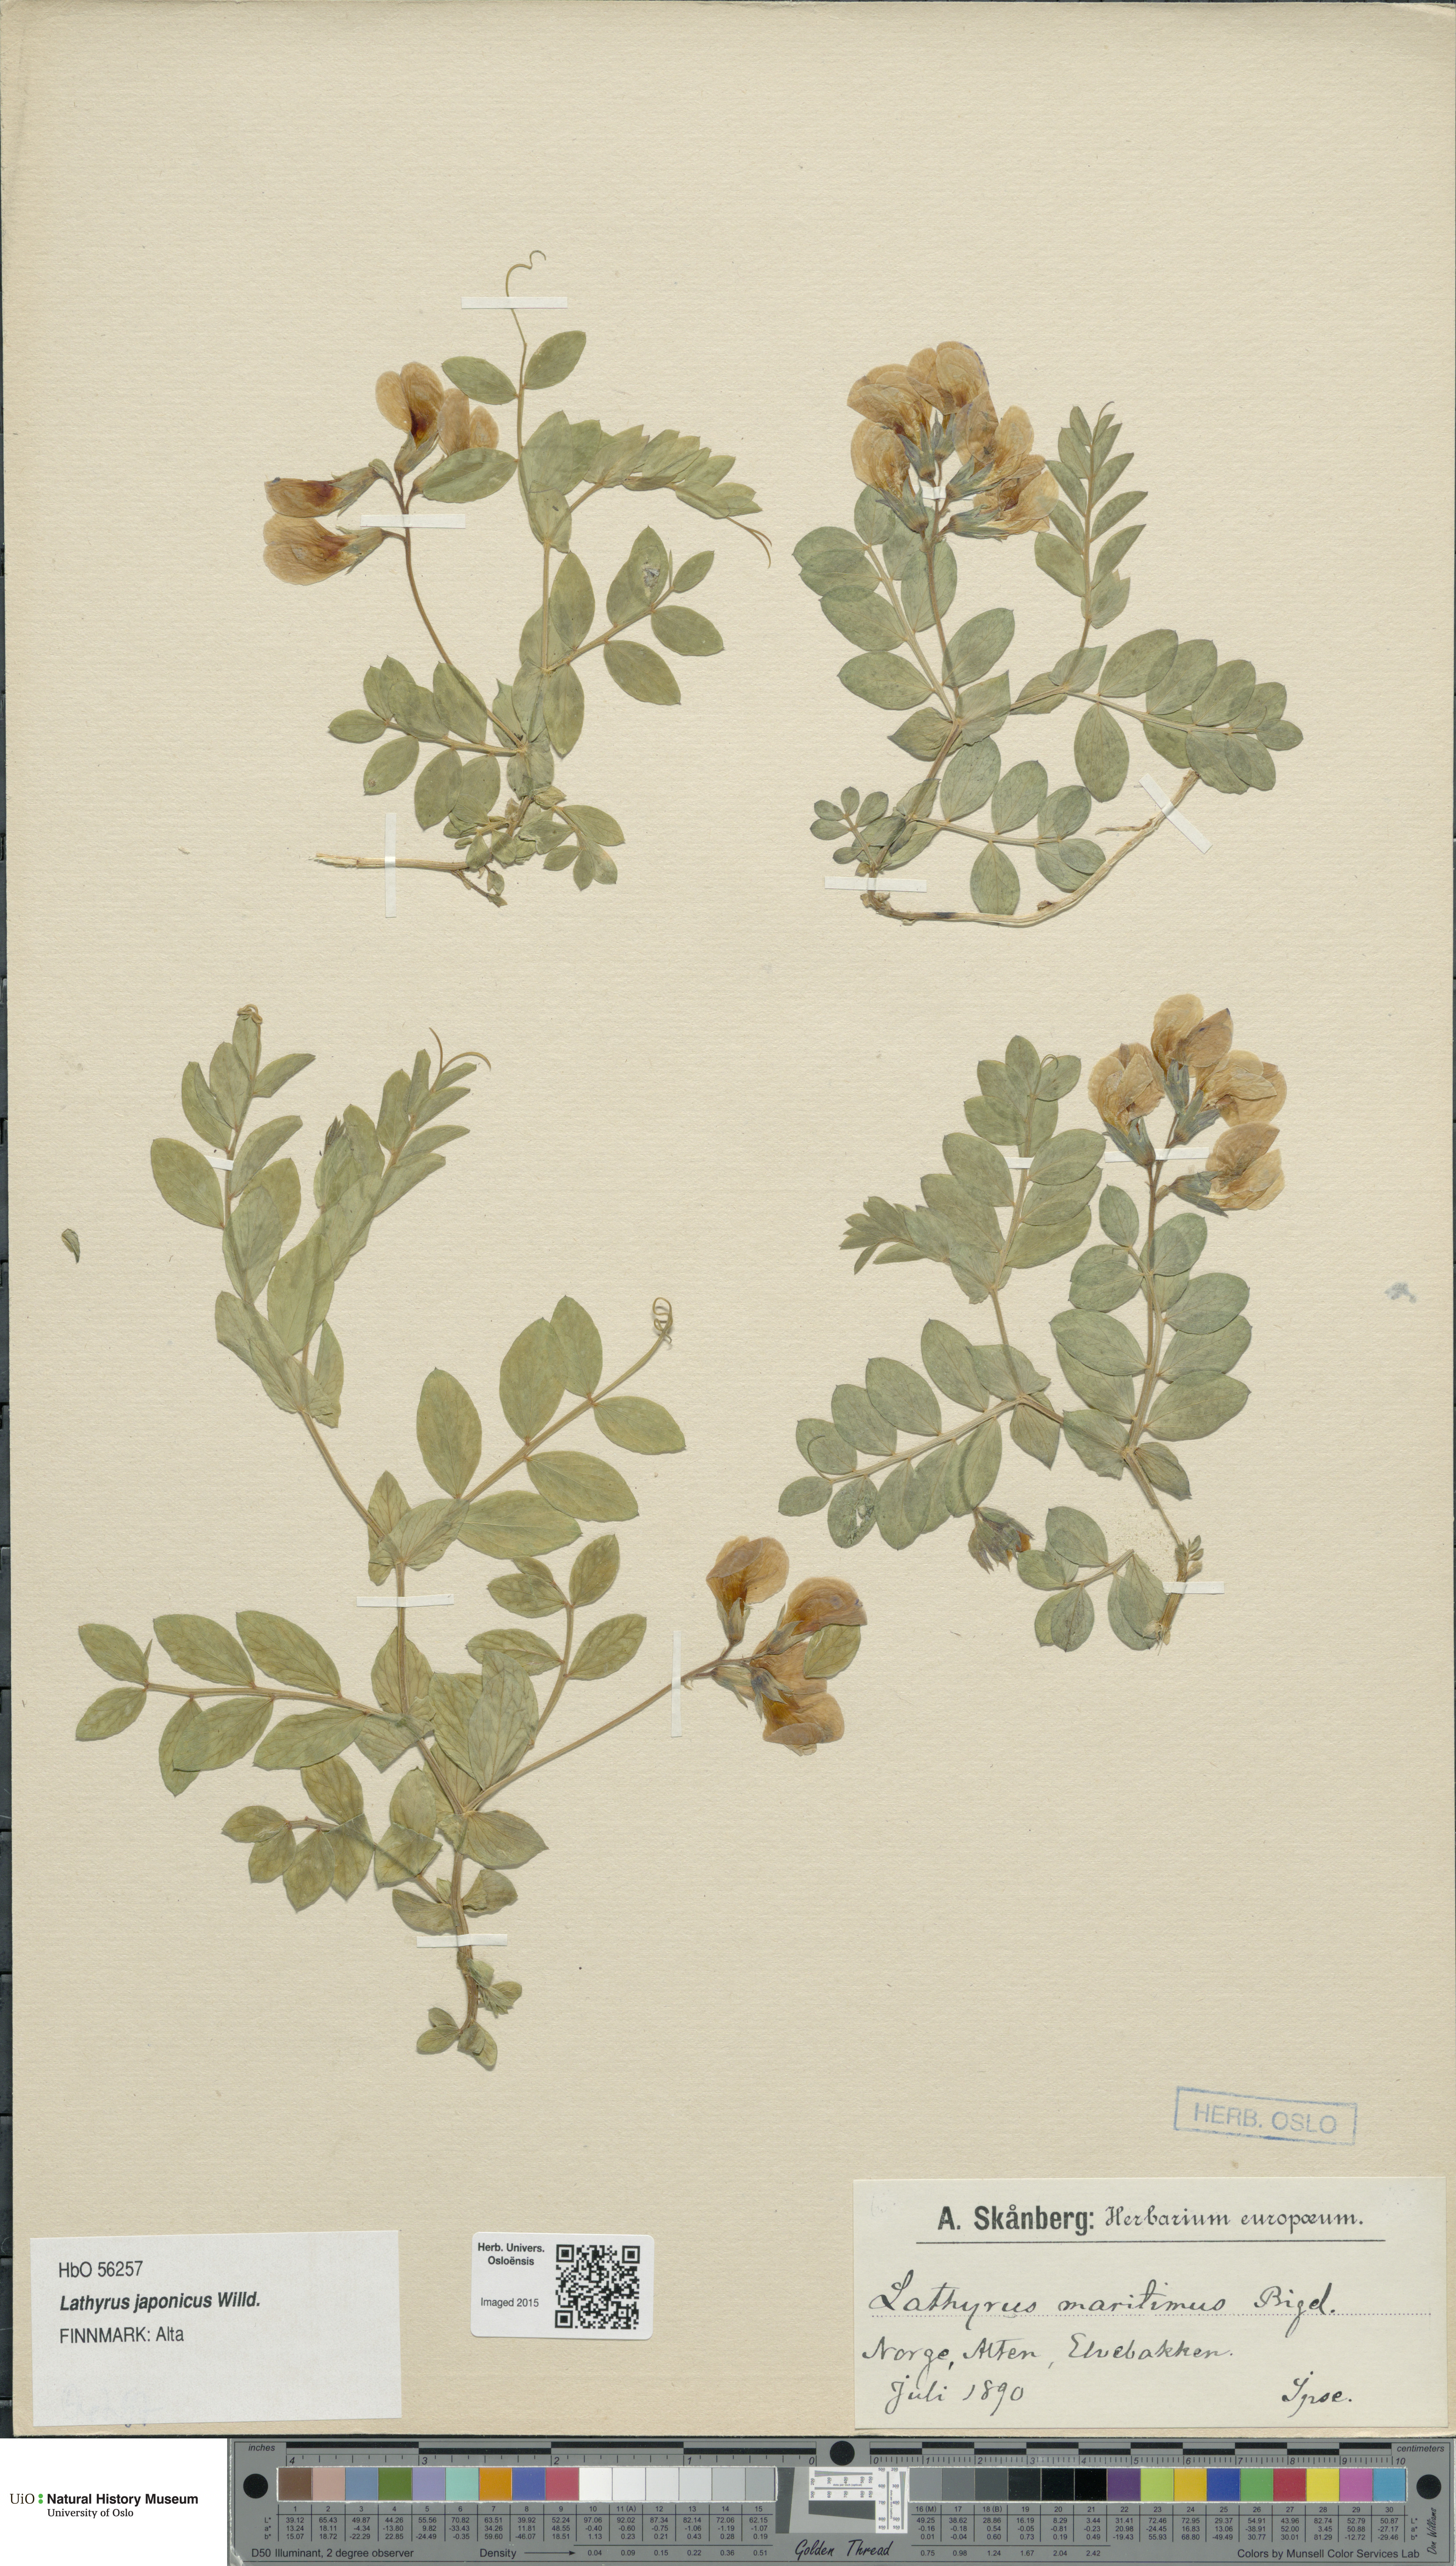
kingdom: Plantae
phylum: Tracheophyta
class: Magnoliopsida
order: Fabales
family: Fabaceae
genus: Lathyrus
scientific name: Lathyrus
